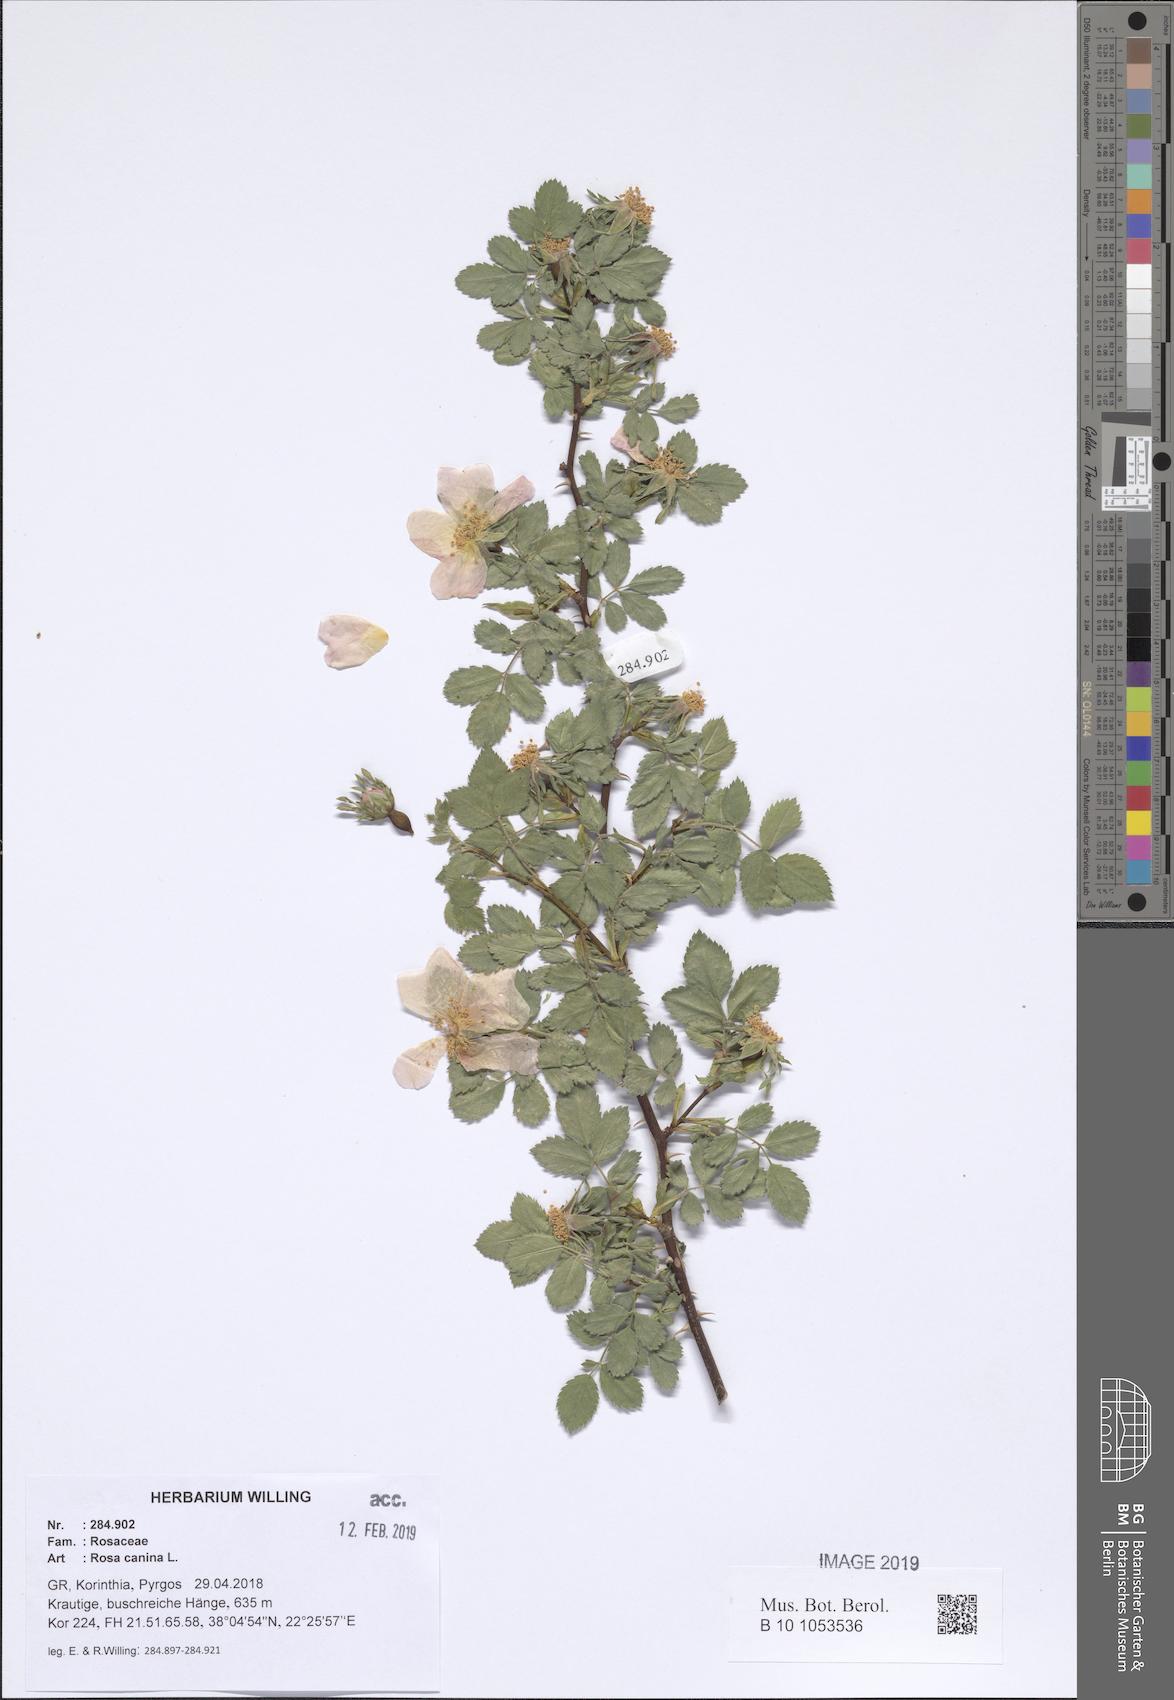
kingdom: Plantae
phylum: Tracheophyta
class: Magnoliopsida
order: Rosales
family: Rosaceae
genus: Rosa
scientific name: Rosa canina
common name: Dog rose
